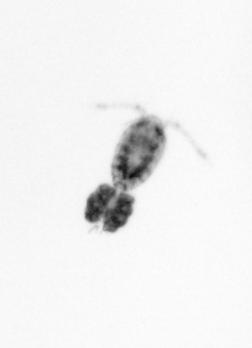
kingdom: Animalia
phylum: Arthropoda
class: Copepoda
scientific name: Copepoda
